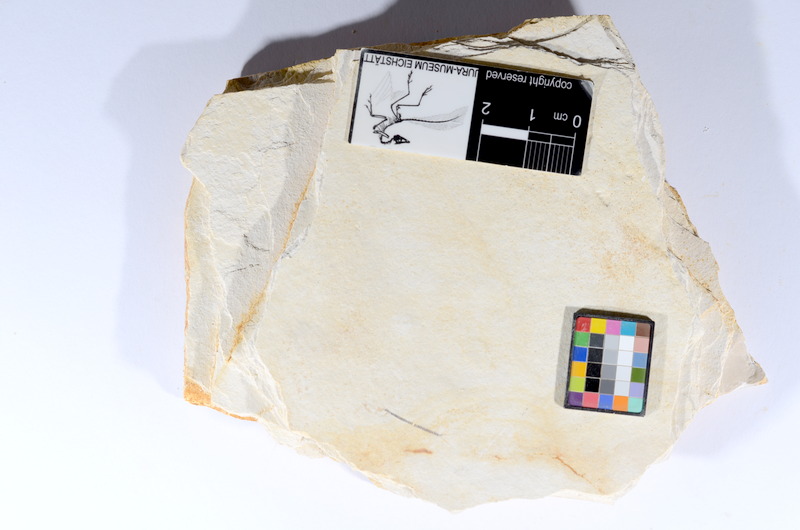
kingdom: Animalia
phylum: Chordata
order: Salmoniformes
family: Orthogonikleithridae
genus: Orthogonikleithrus
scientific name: Orthogonikleithrus hoelli
